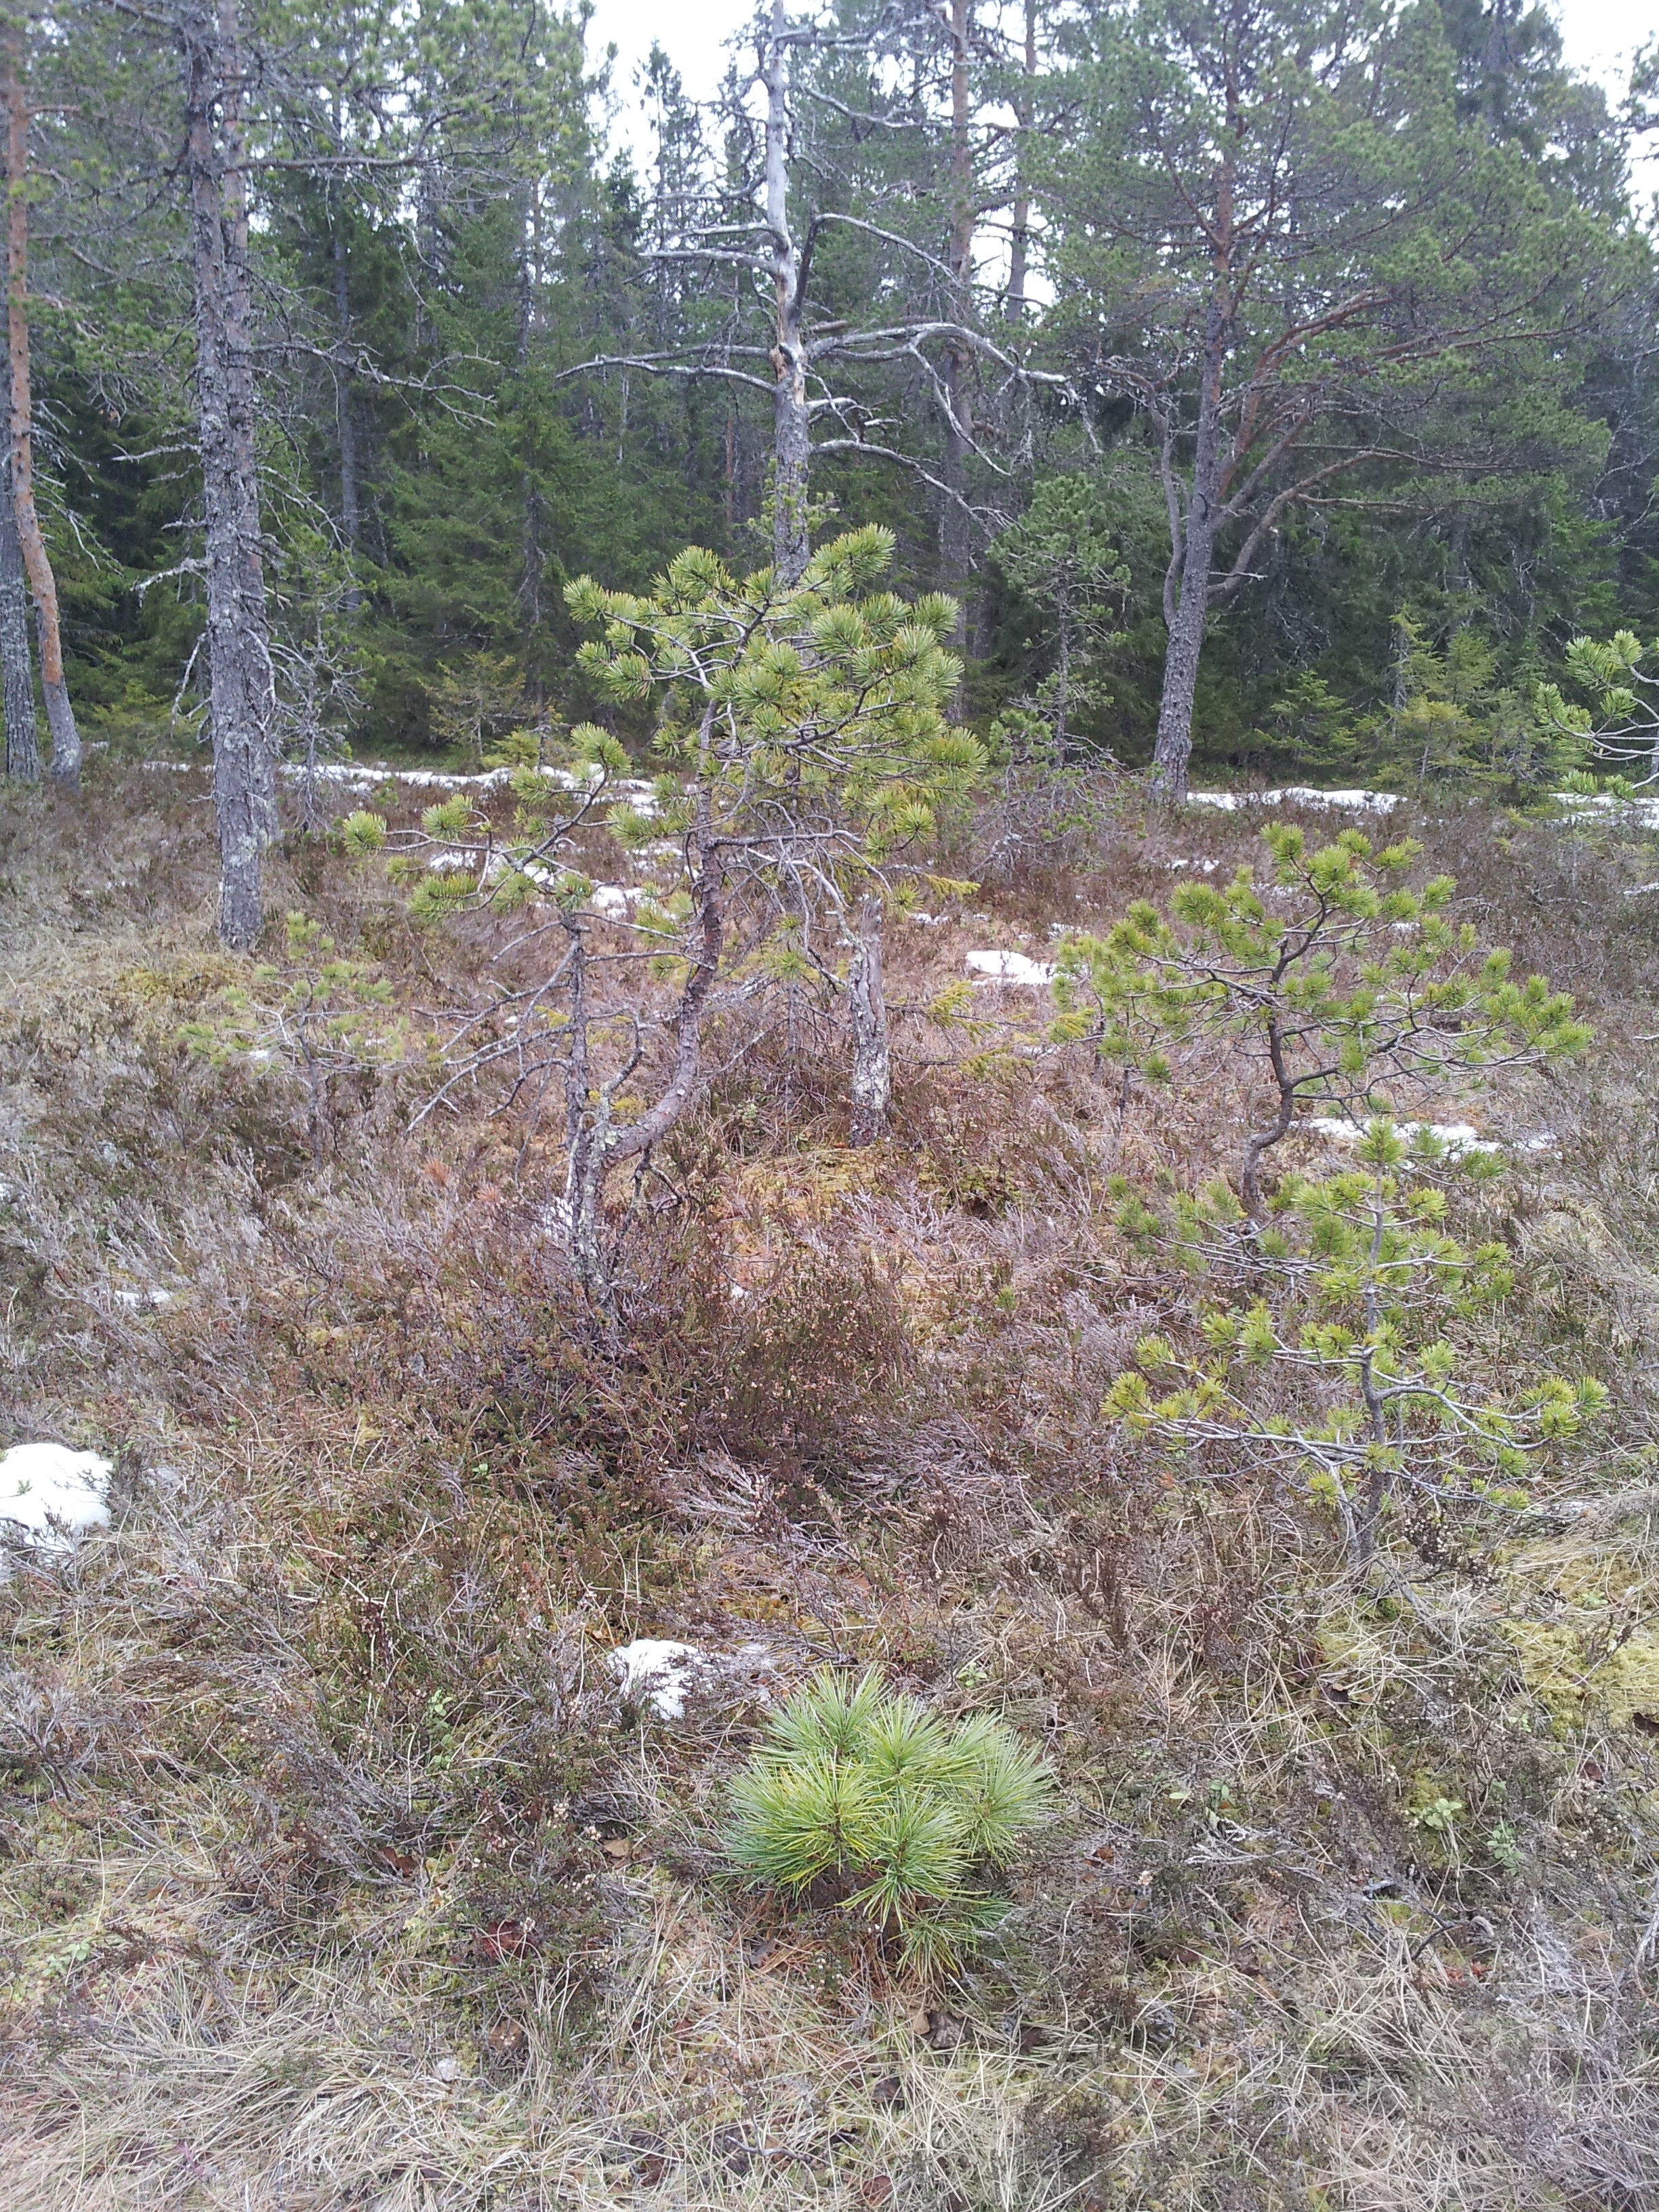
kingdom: Plantae
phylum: Tracheophyta
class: Pinopsida
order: Pinales
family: Pinaceae
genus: Pinus
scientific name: Pinus cembra
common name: Arolla pine
